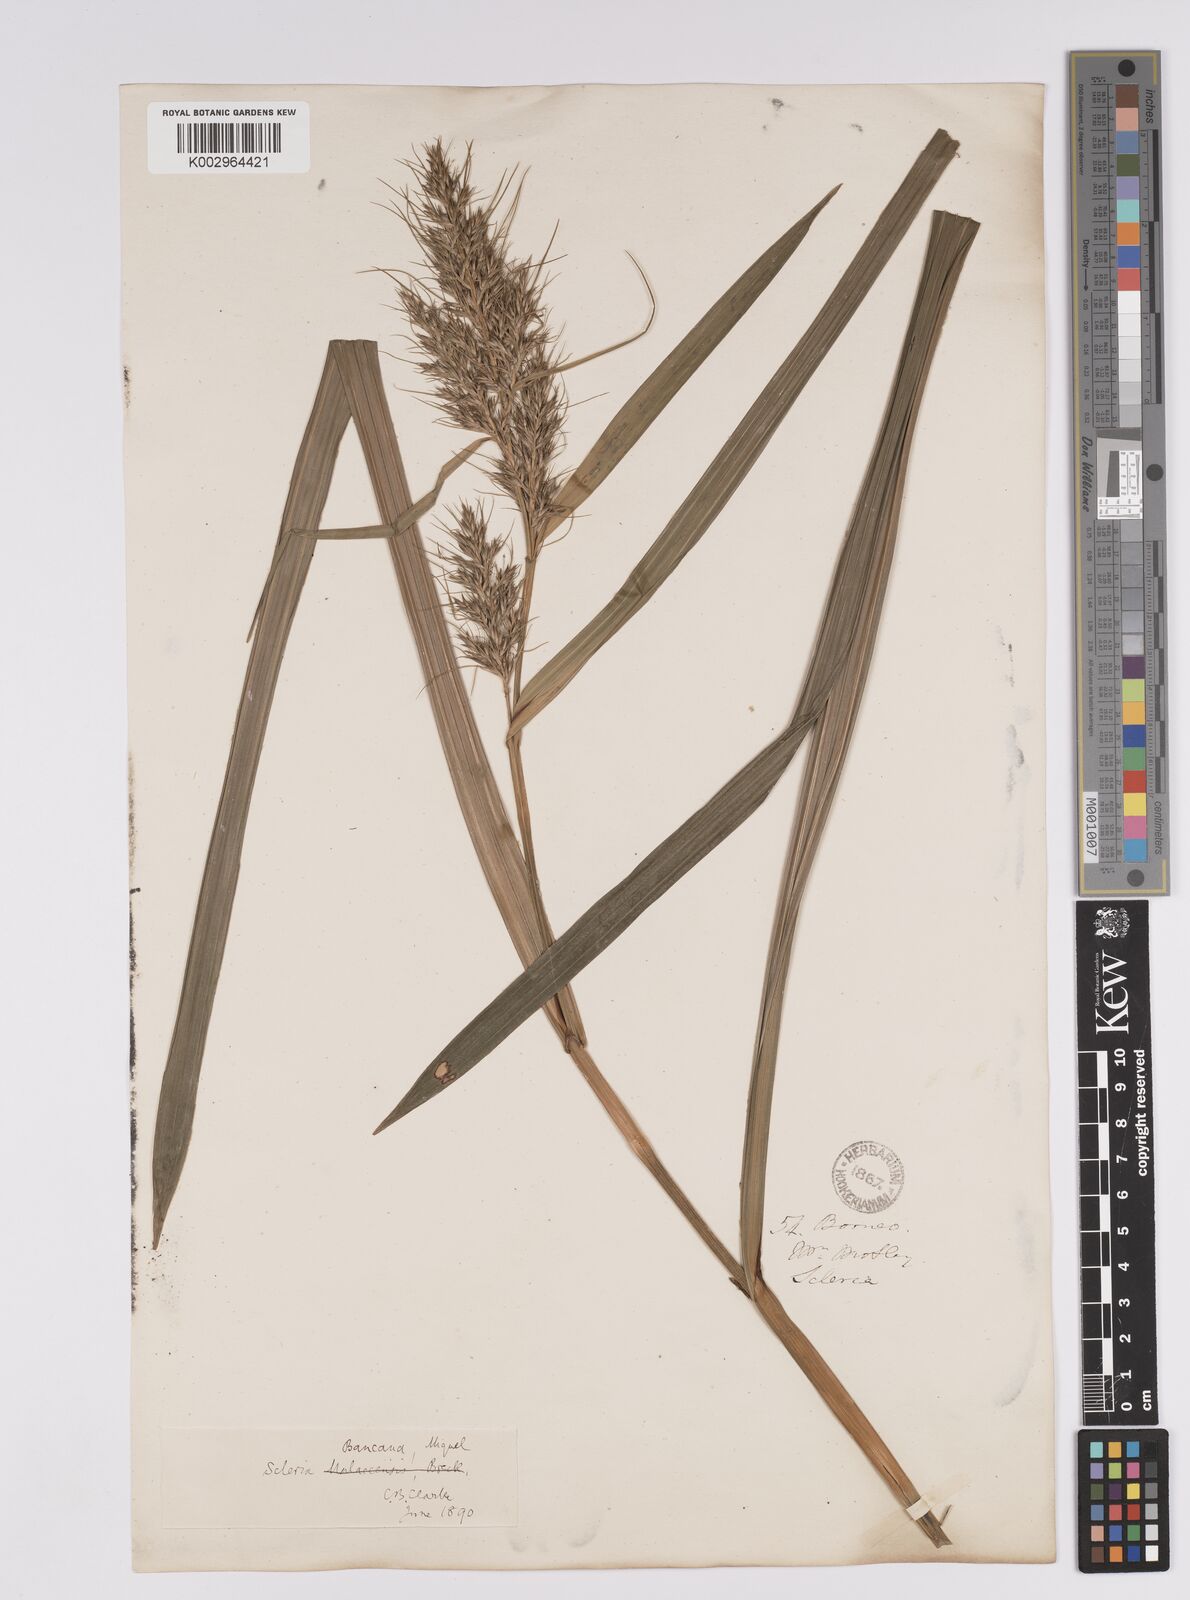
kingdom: Plantae
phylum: Tracheophyta
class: Liliopsida
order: Poales
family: Cyperaceae
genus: Scleria
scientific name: Scleria ciliaris
